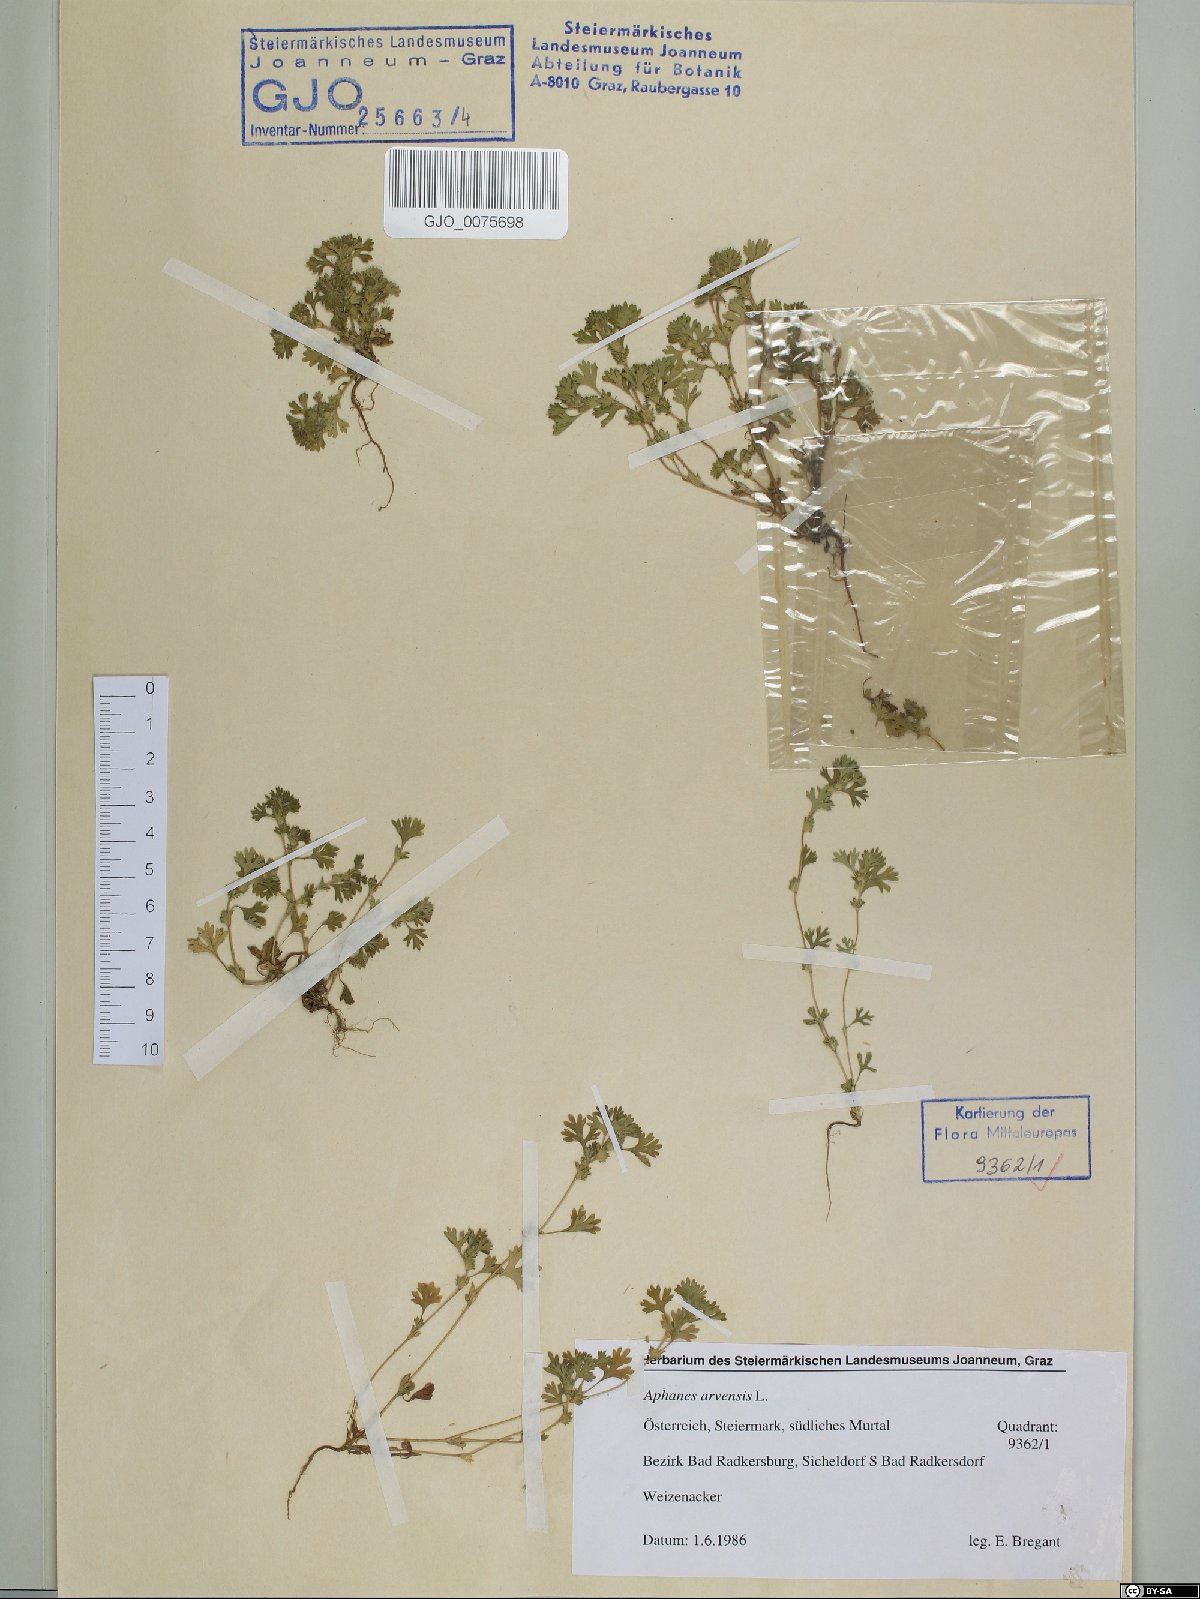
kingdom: Plantae
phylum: Tracheophyta
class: Magnoliopsida
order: Rosales
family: Rosaceae
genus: Aphanes
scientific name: Aphanes arvensis
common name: Parsley-piert
